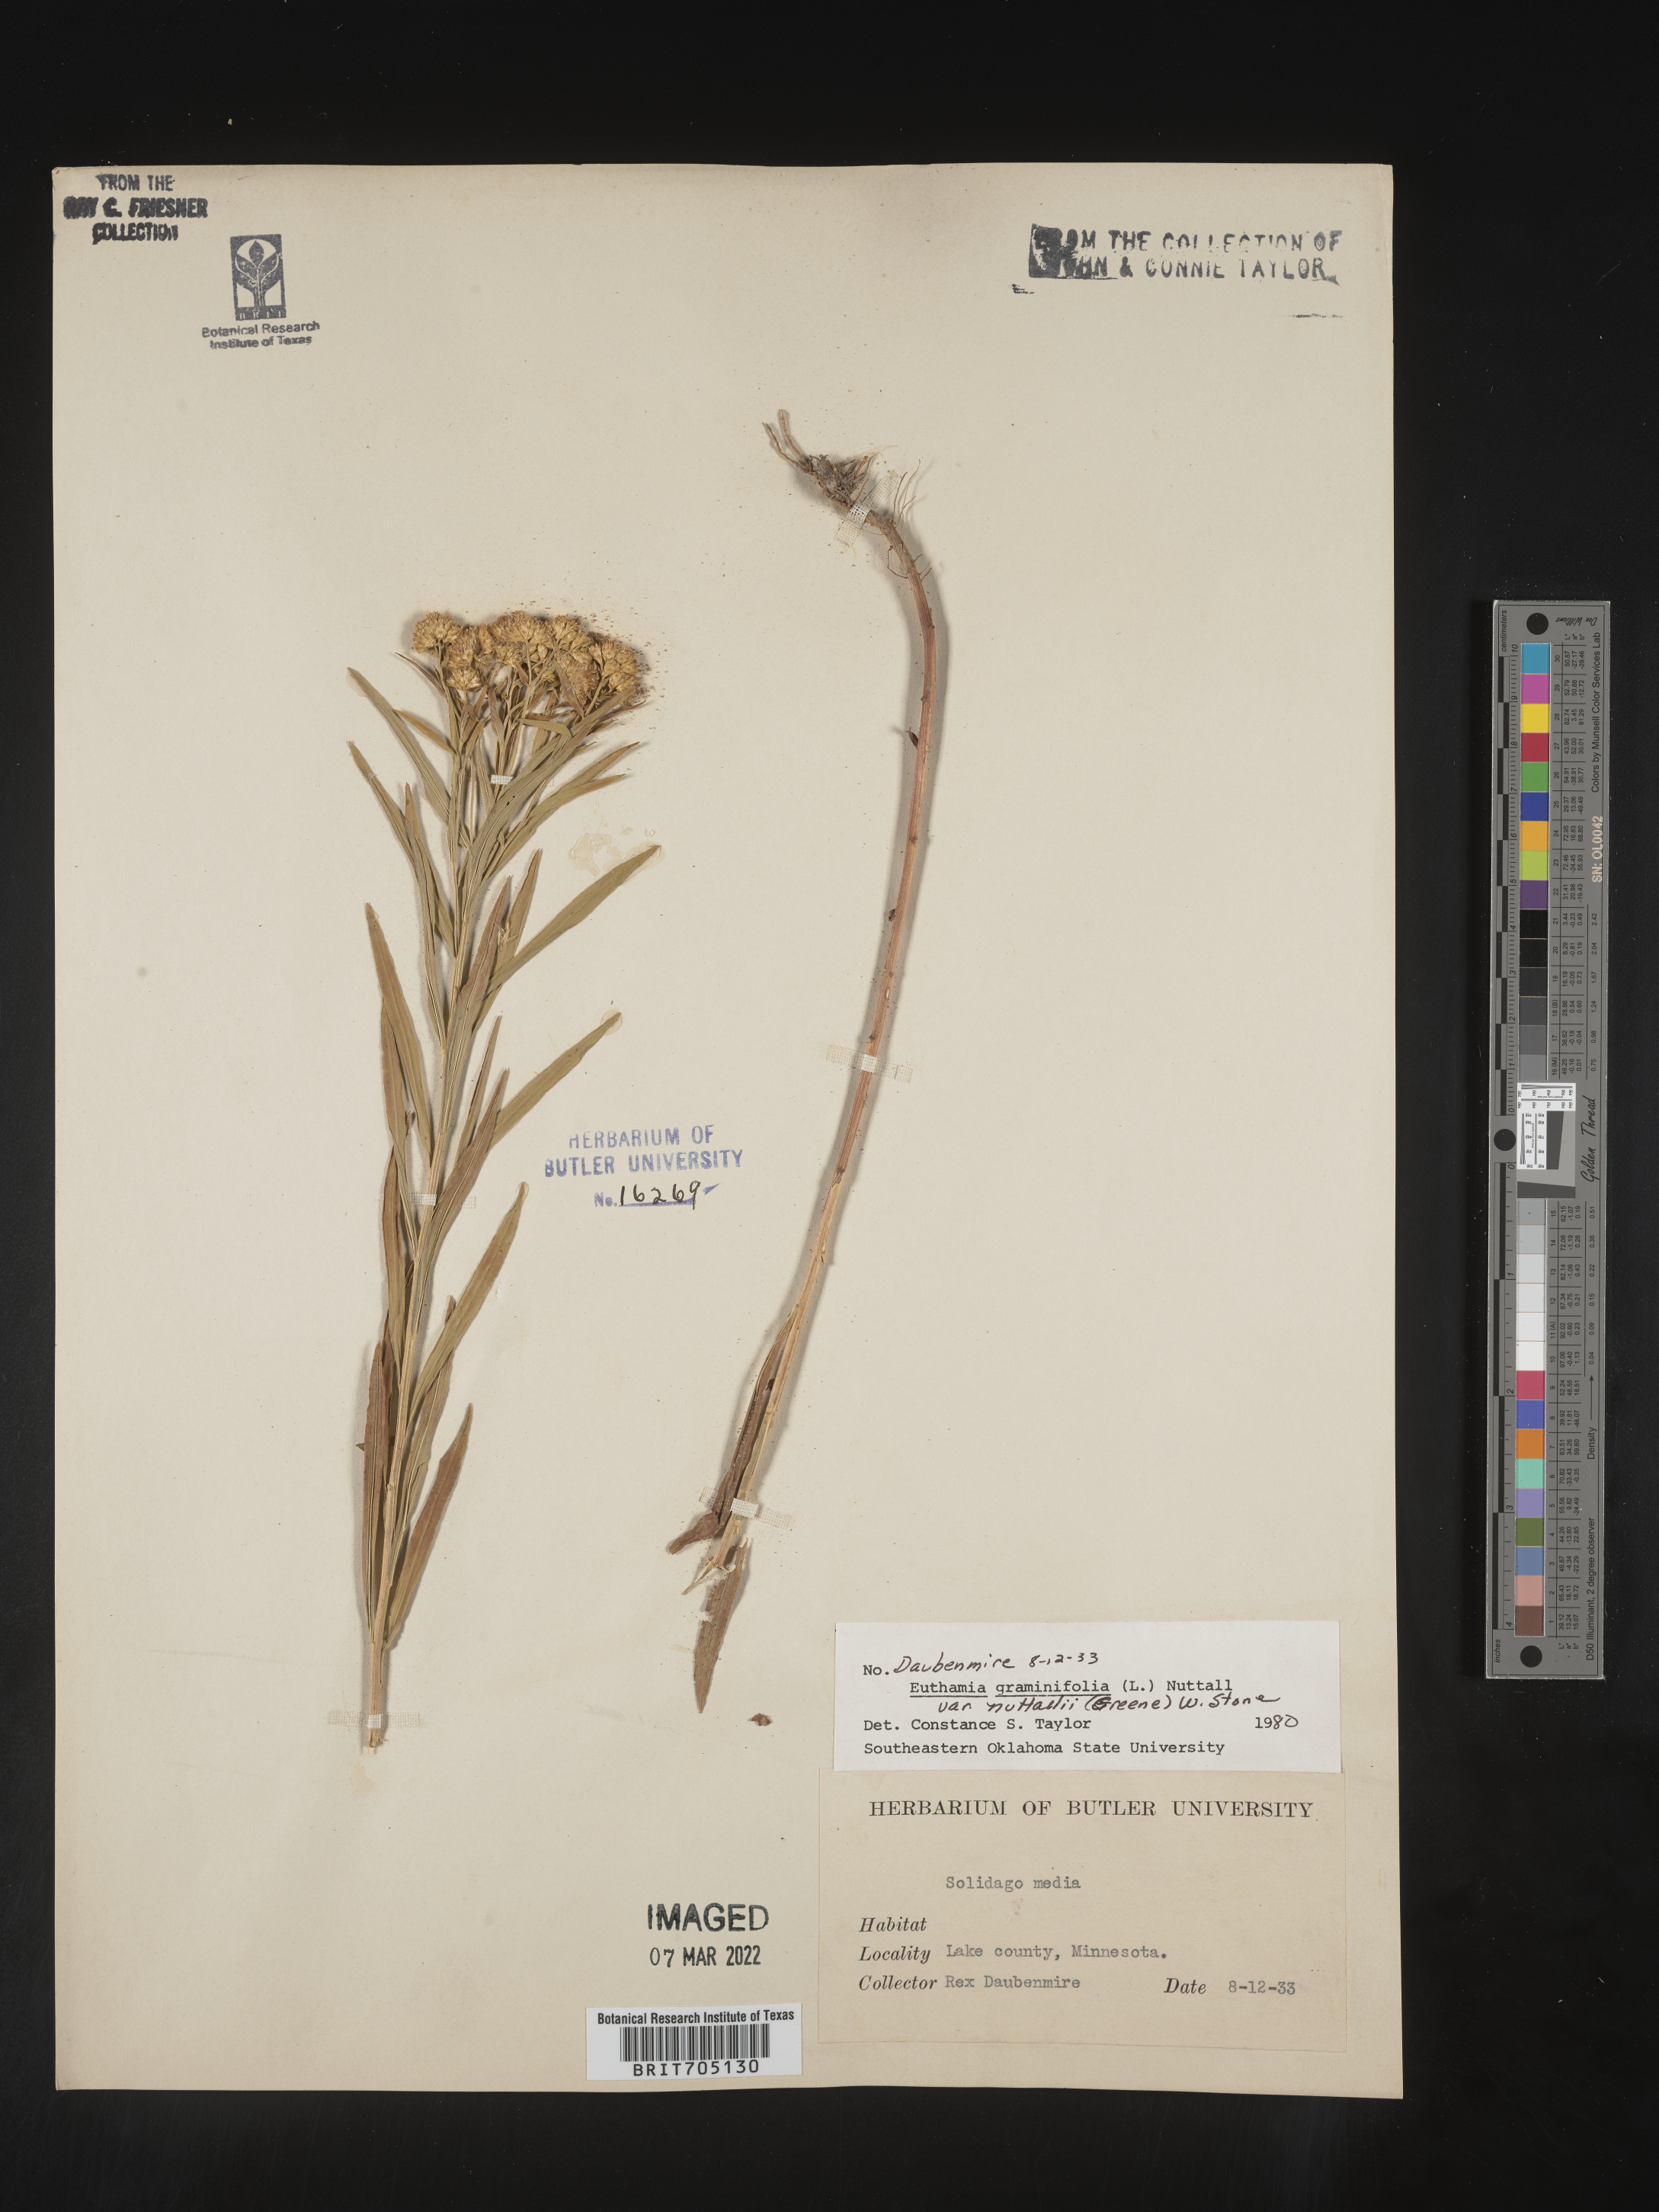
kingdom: Plantae
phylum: Tracheophyta
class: Magnoliopsida
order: Asterales
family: Asteraceae
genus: Euthamia
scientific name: Euthamia graminifolia
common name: Common goldentop
